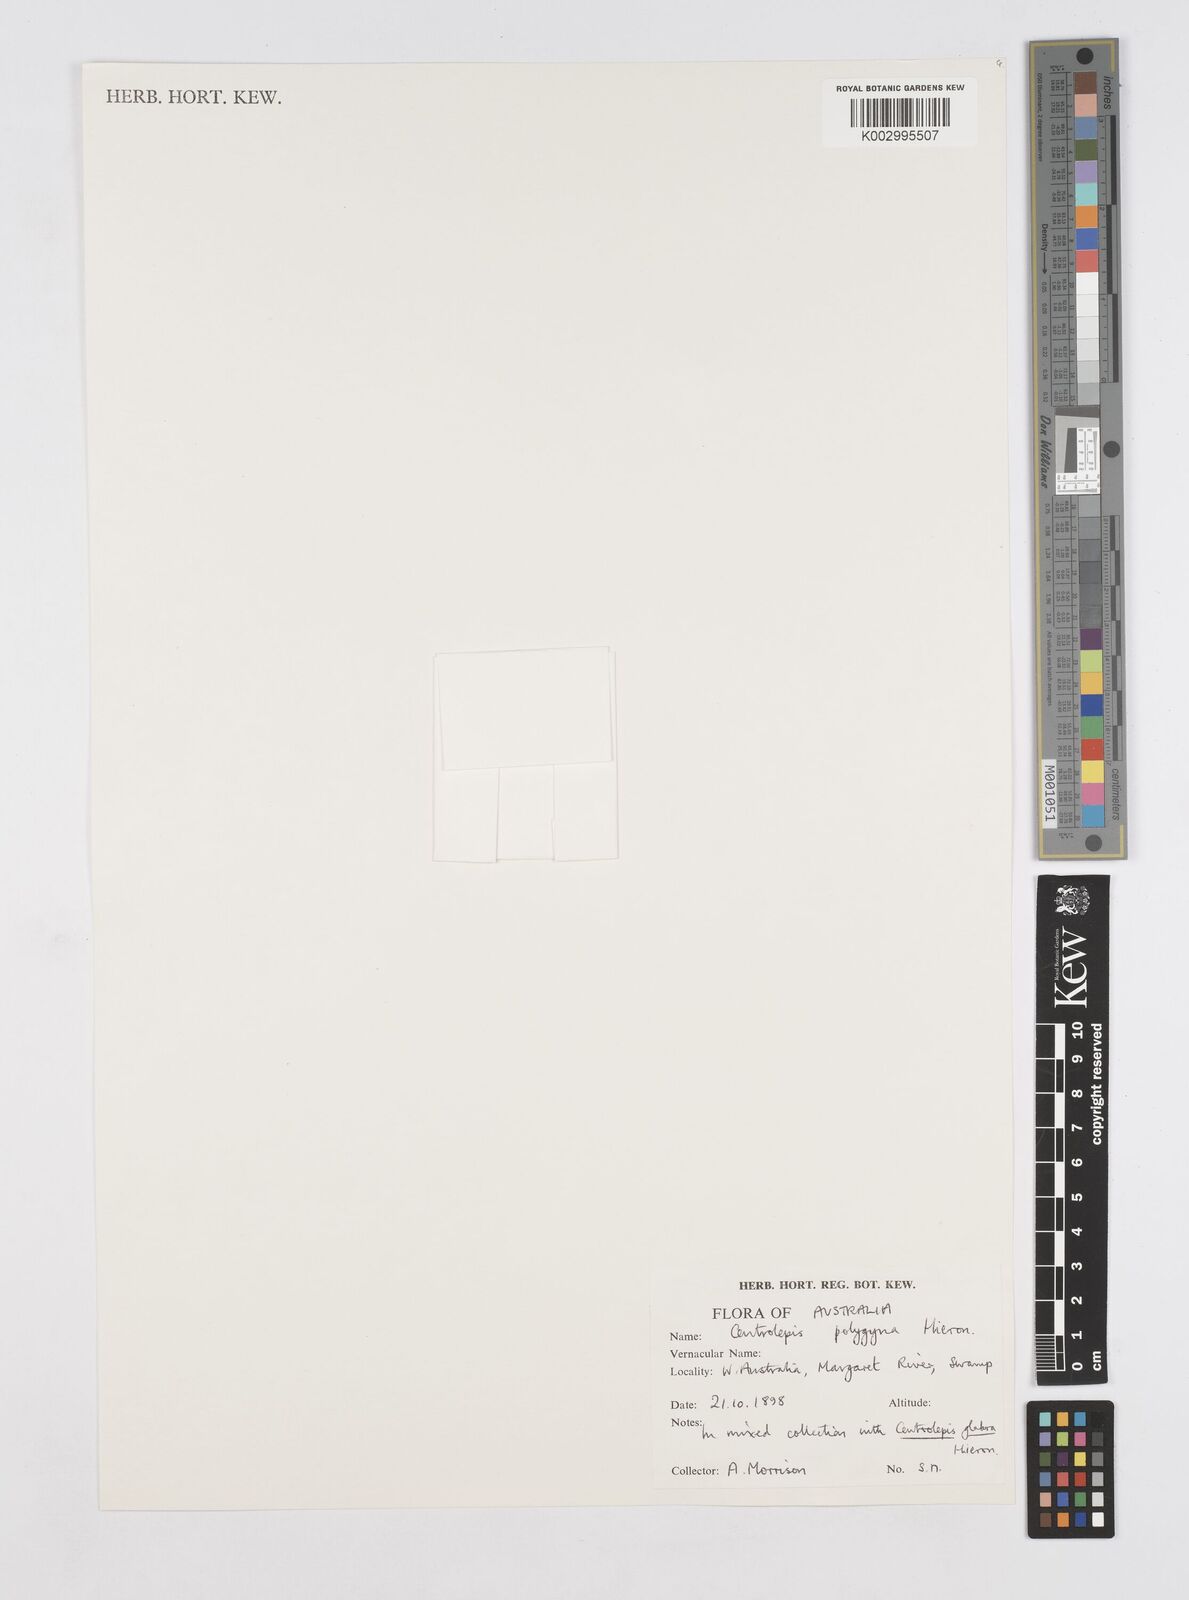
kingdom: Plantae
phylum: Tracheophyta
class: Liliopsida
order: Poales
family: Restionaceae
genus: Centrolepis
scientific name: Centrolepis polygyna
